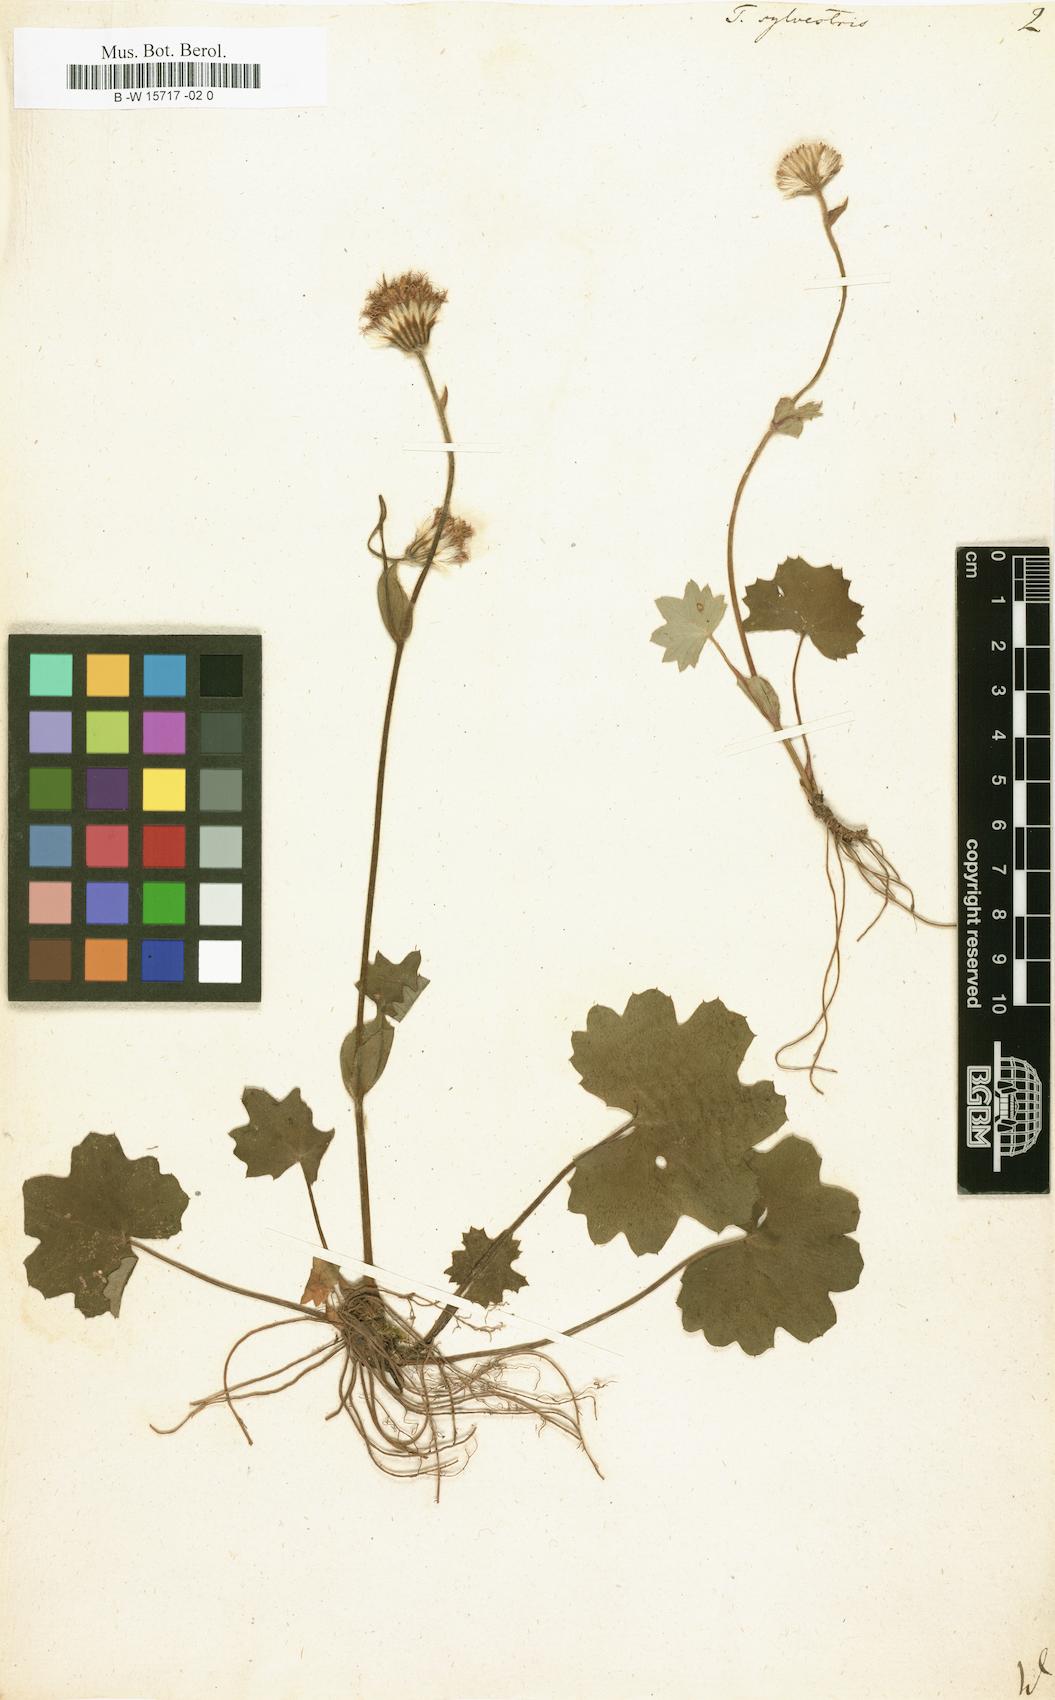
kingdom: Plantae
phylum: Tracheophyta
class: Magnoliopsida
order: Asterales
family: Asteraceae
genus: Homogyne
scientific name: Homogyne sylvestris
